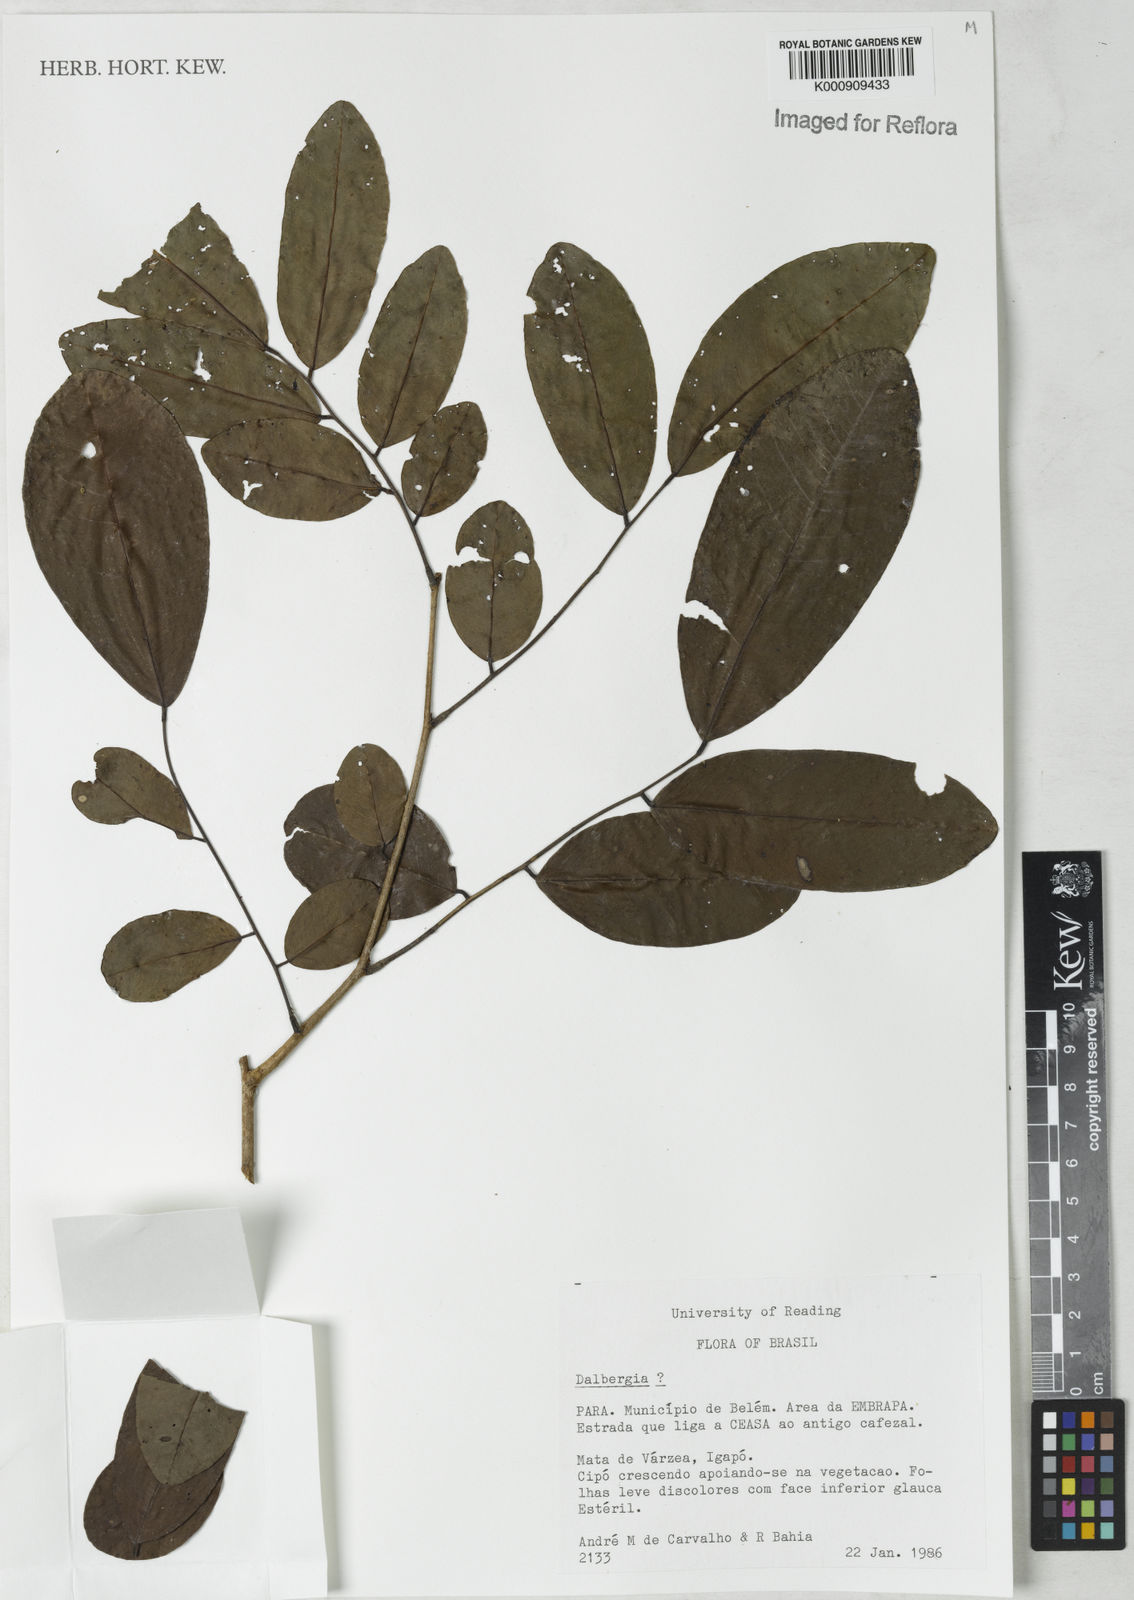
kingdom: Plantae
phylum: Tracheophyta
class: Magnoliopsida
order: Fabales
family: Fabaceae
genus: Dalbergia
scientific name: Dalbergia
